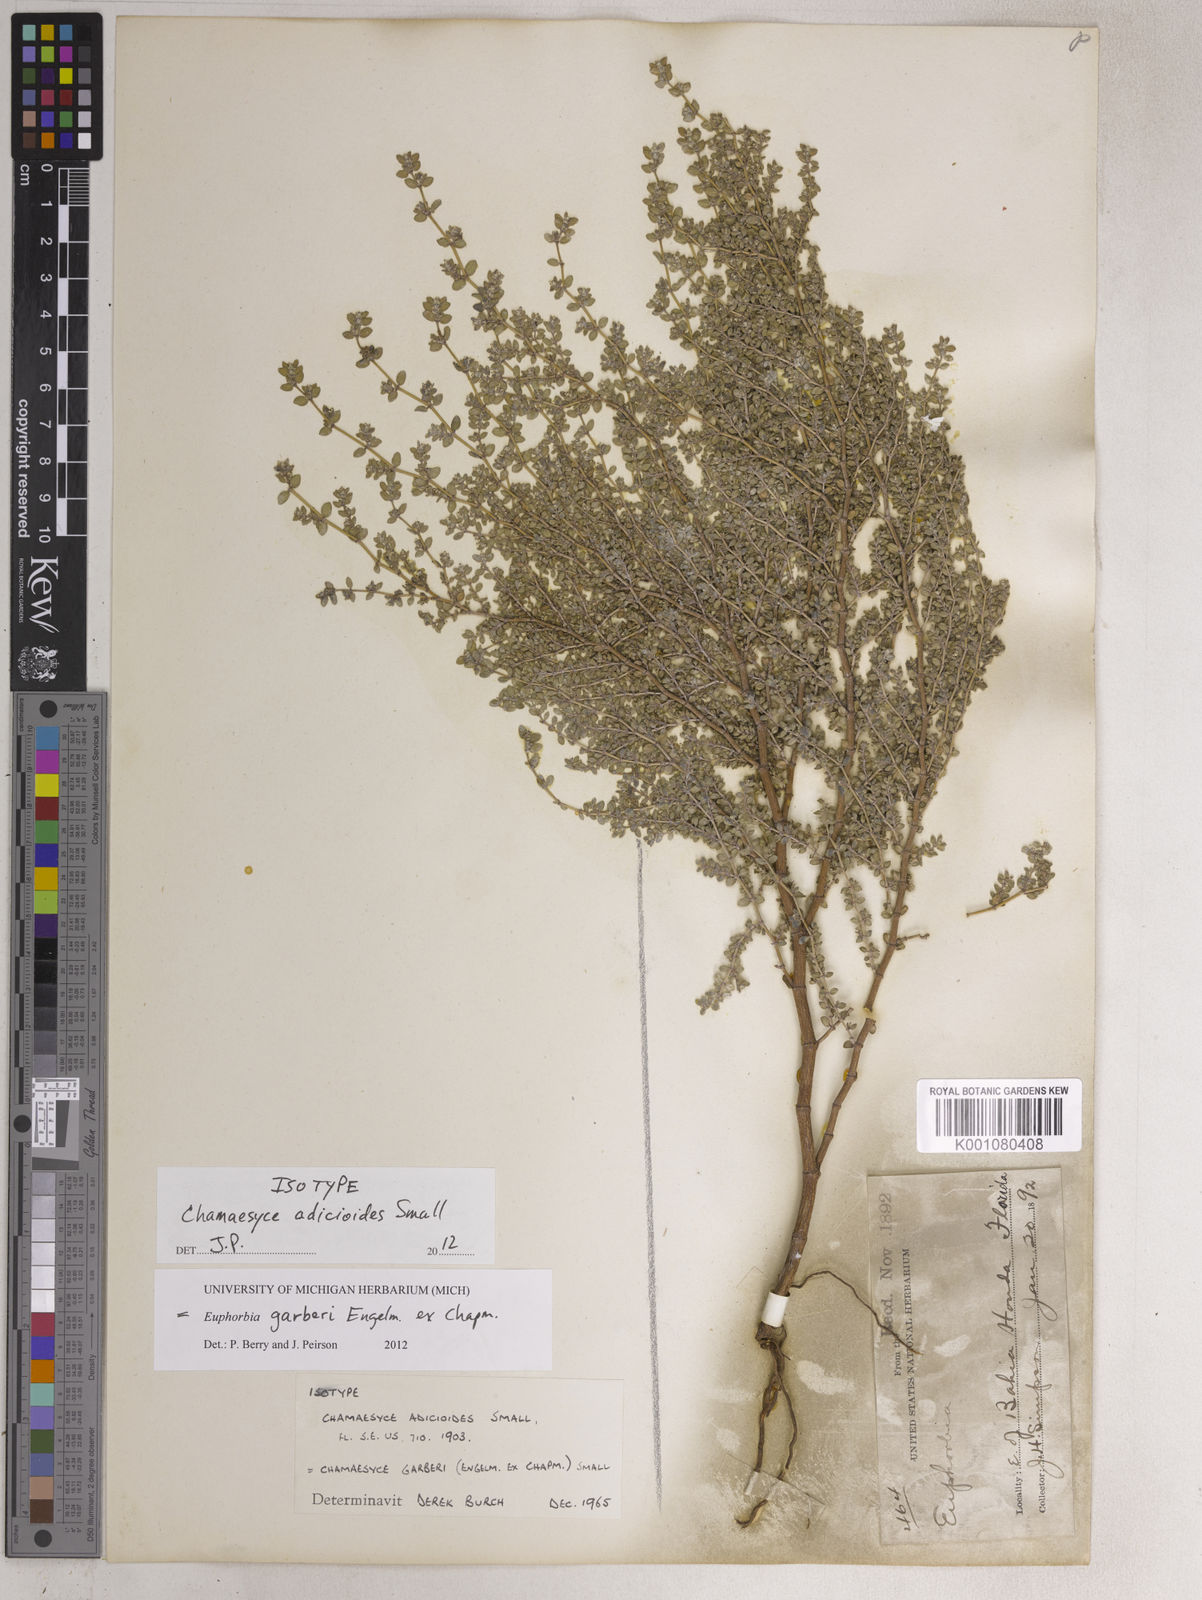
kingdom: Plantae
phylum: Tracheophyta
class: Magnoliopsida
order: Malpighiales
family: Euphorbiaceae
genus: Euphorbia
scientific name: Euphorbia hirta
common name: Pillpod sandmat
